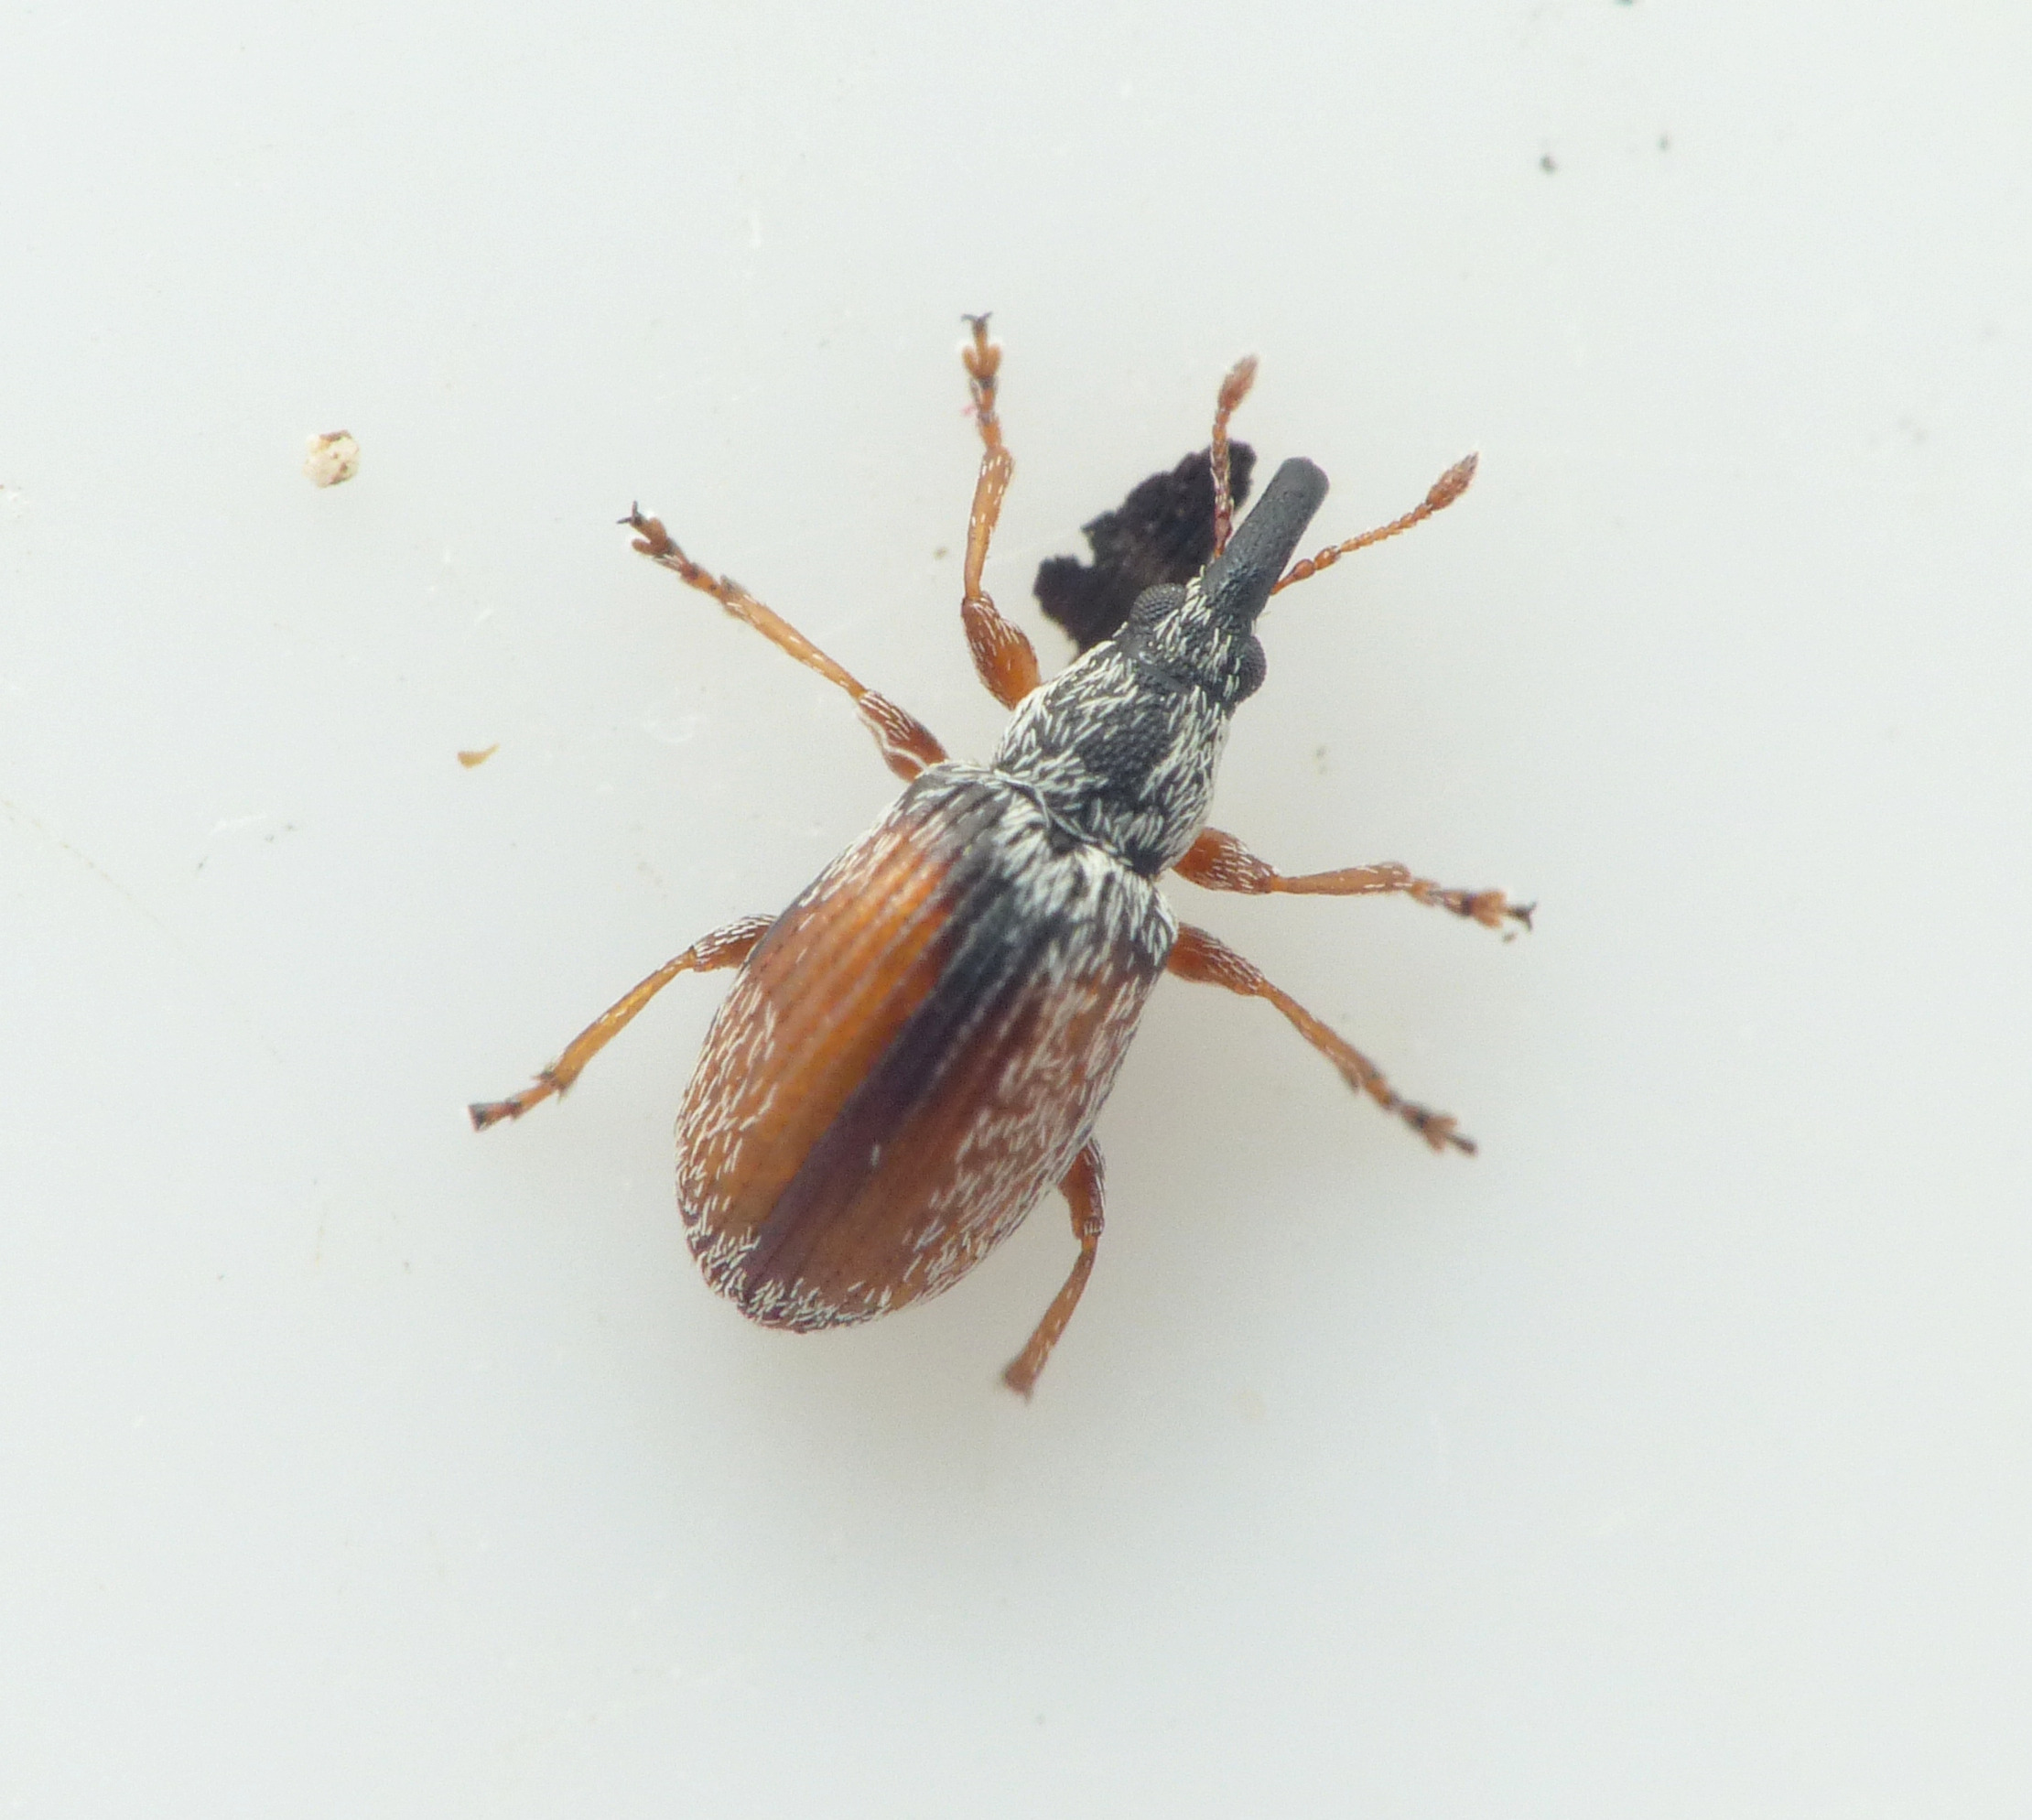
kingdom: Animalia
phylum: Arthropoda
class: Insecta
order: Coleoptera
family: Apionidae
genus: Malvapion
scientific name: Malvapion malvae
